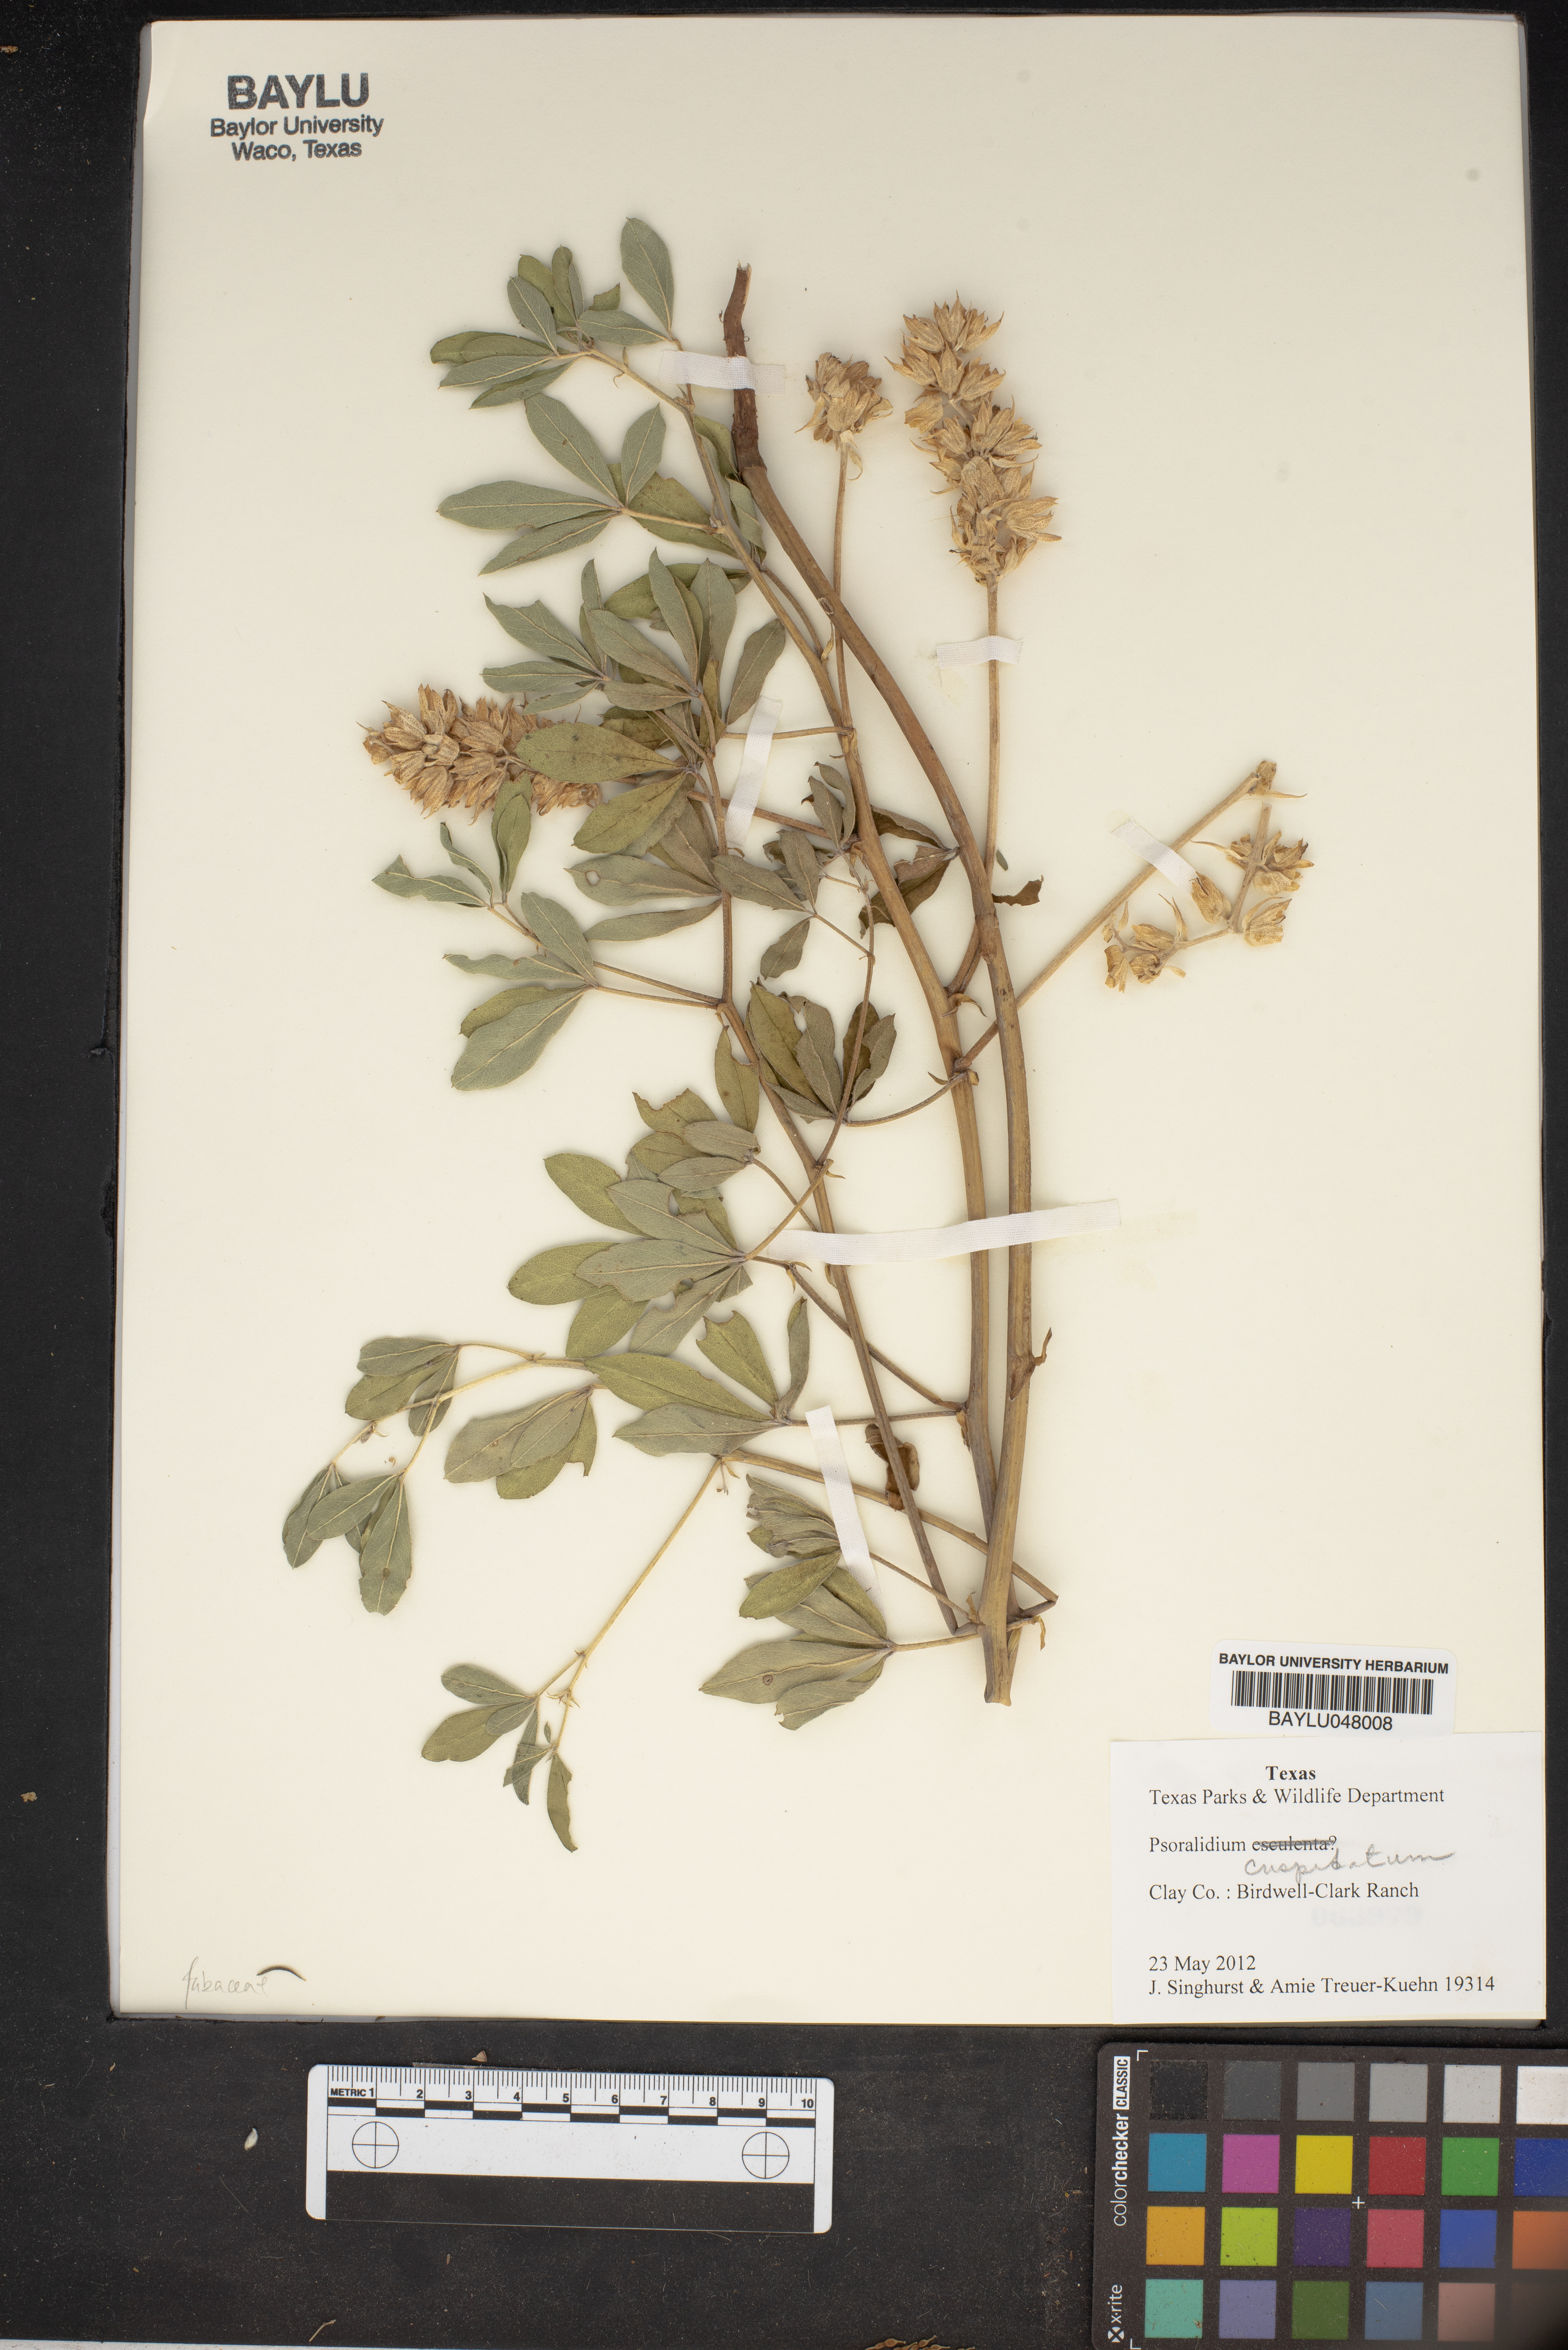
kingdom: Plantae
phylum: Tracheophyta
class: Magnoliopsida
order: Fabales
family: Fabaceae
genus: Pediomelum
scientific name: Pediomelum
